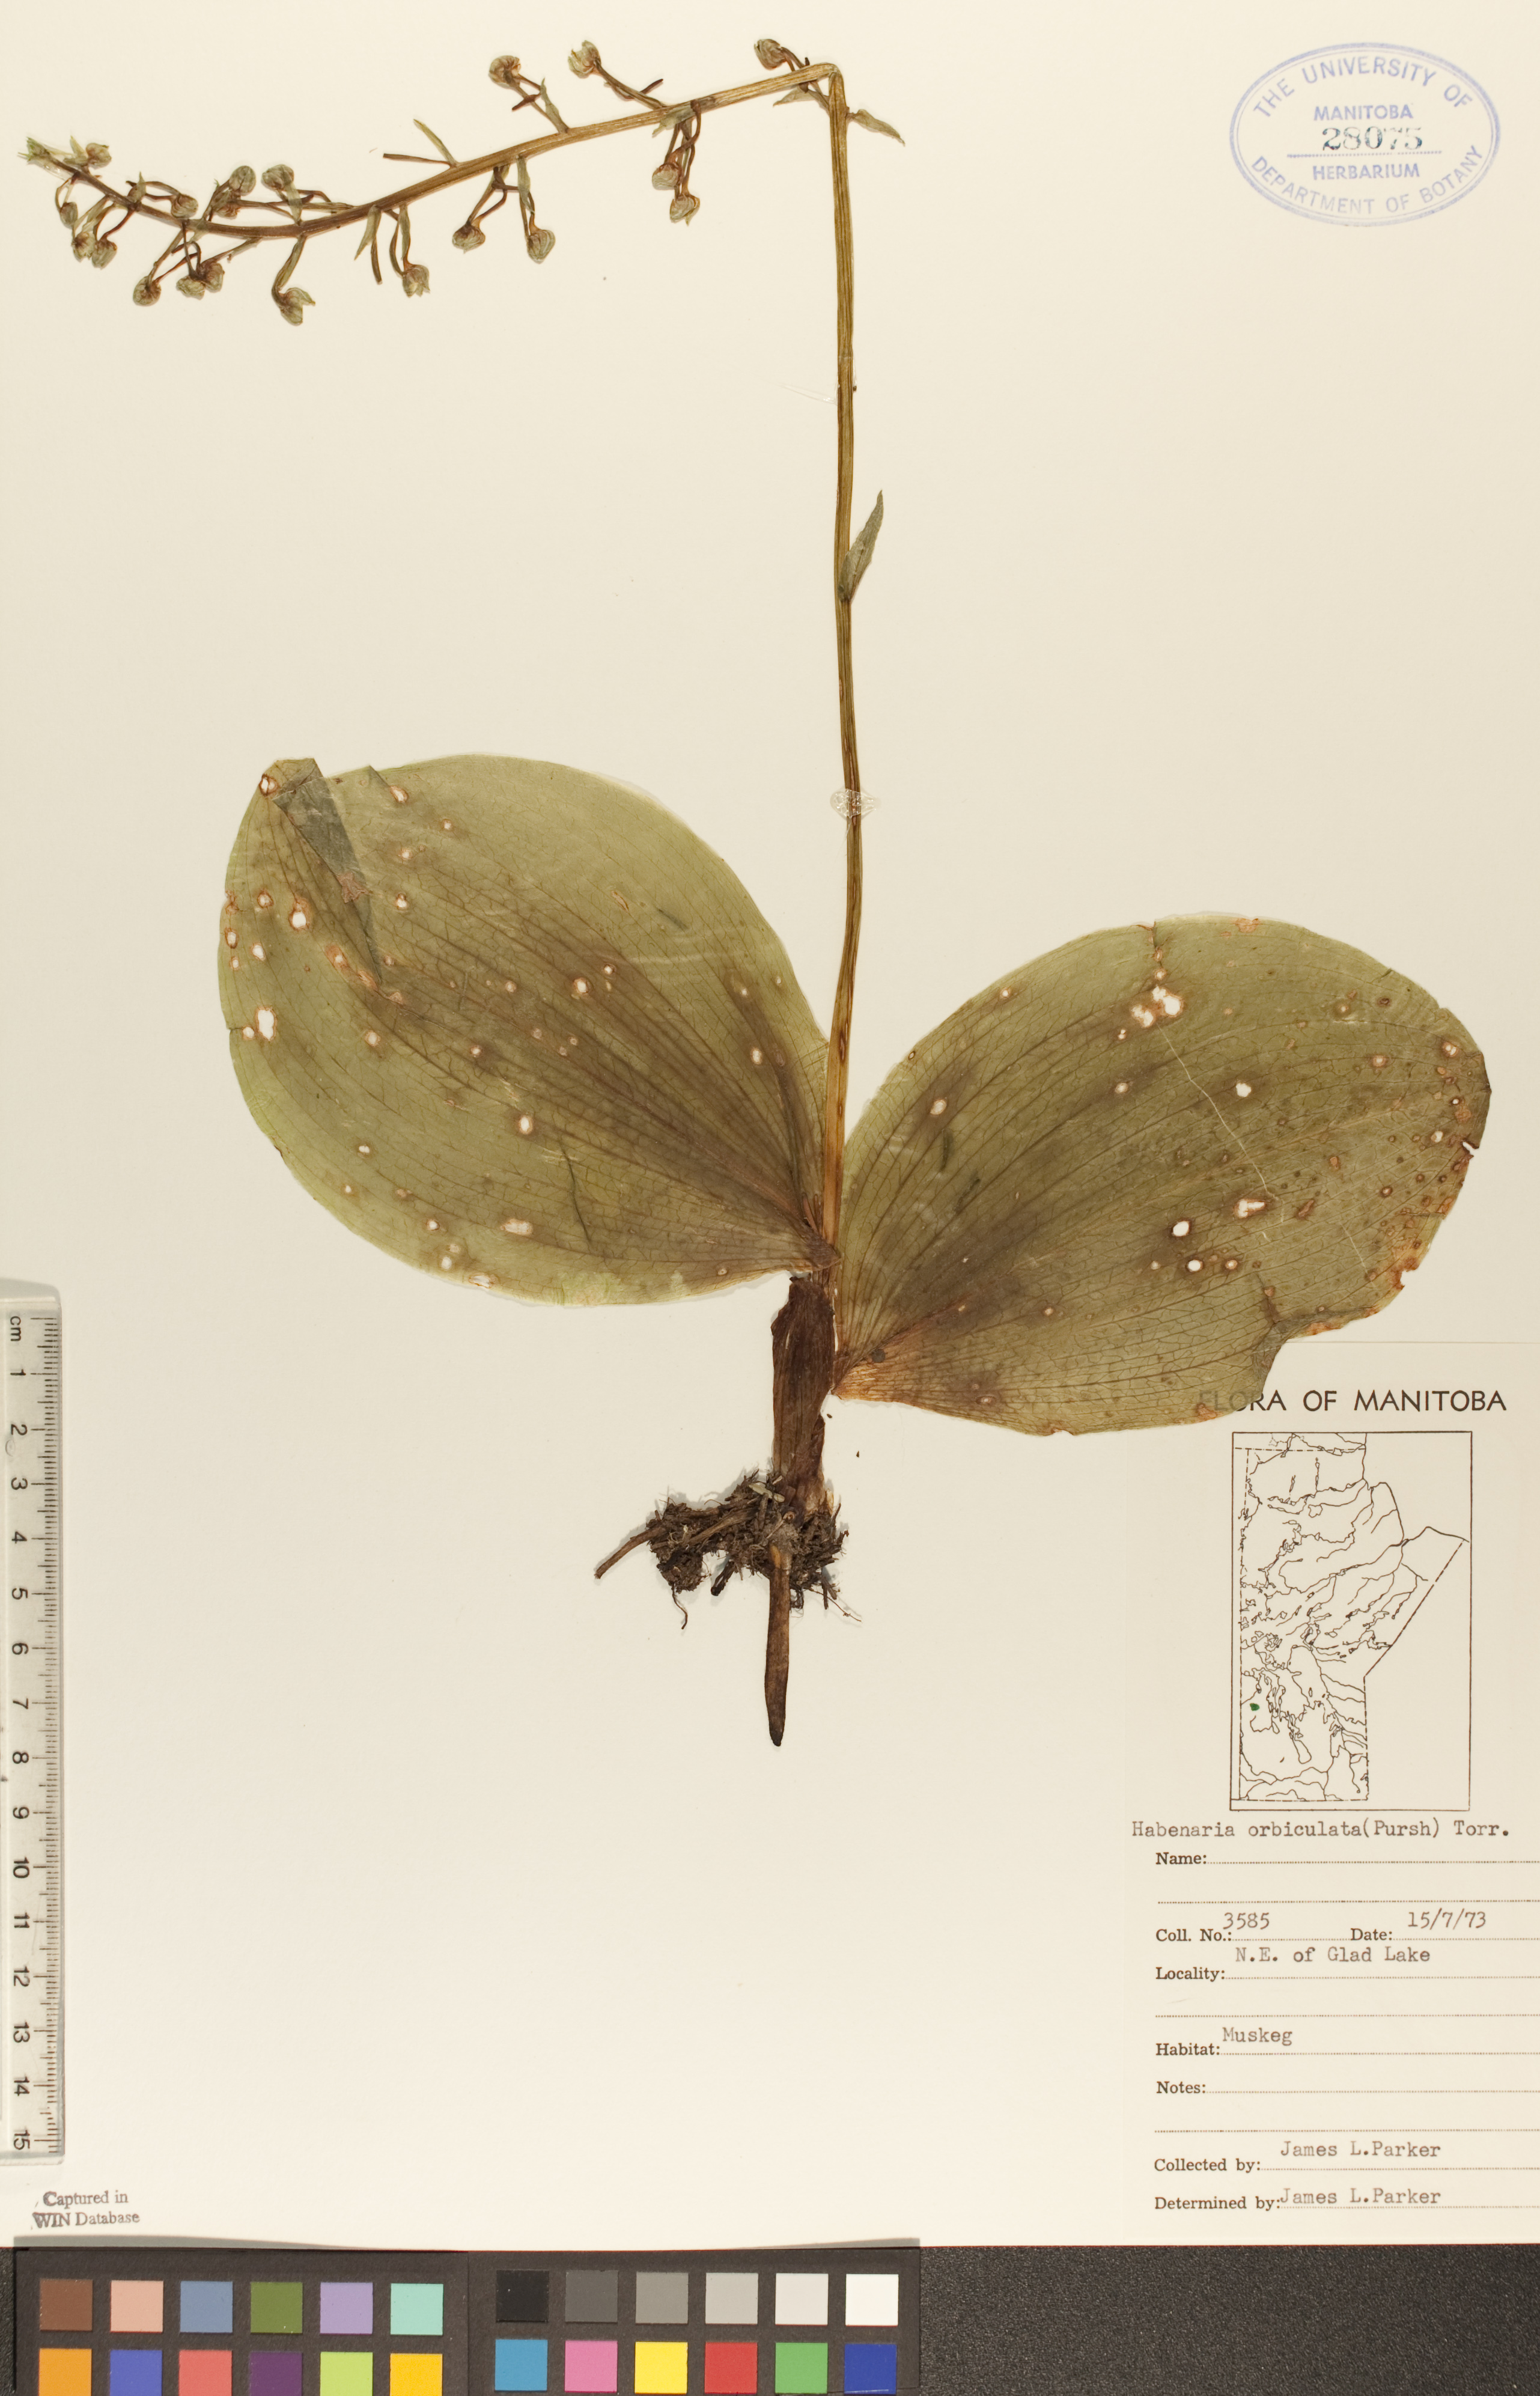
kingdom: Plantae
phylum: Tracheophyta
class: Liliopsida
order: Asparagales
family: Orchidaceae
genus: Platanthera
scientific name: Platanthera orbiculata
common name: Large round-leaved orchid
